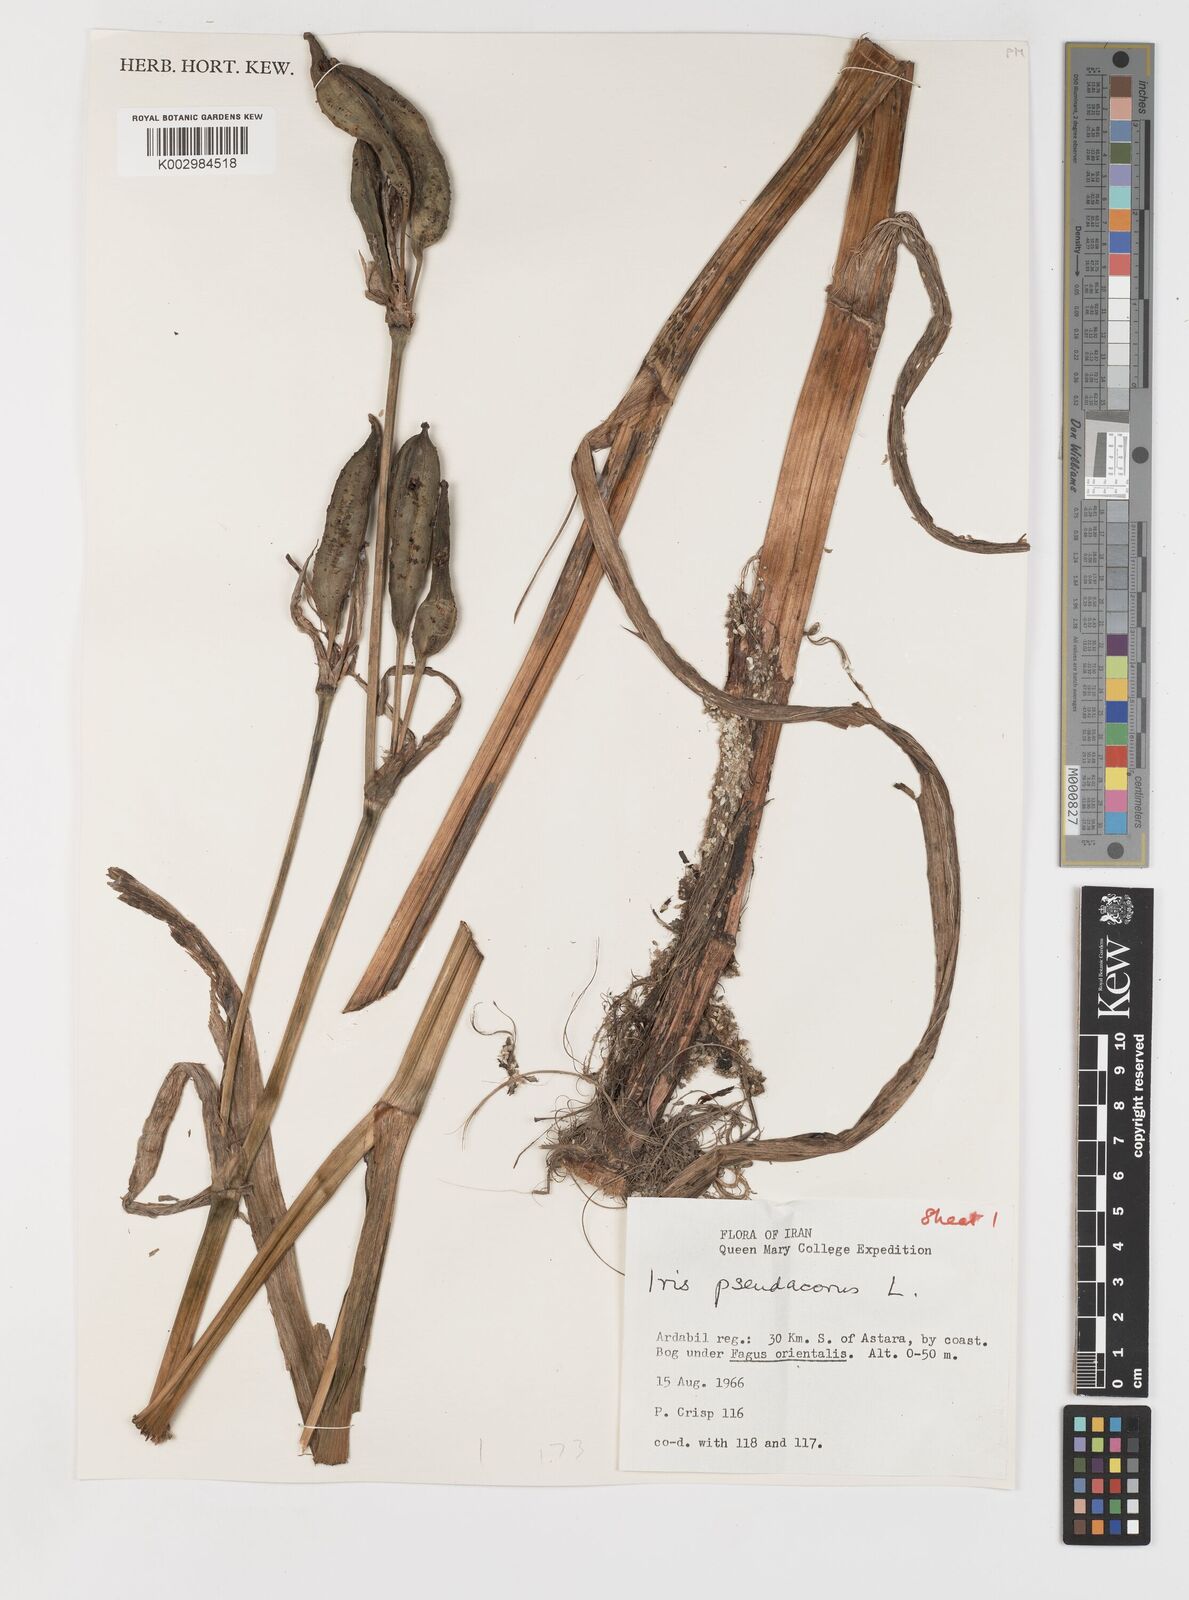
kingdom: Plantae
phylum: Tracheophyta
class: Liliopsida
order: Asparagales
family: Iridaceae
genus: Iris
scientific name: Iris pseudacorus
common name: Yellow flag
